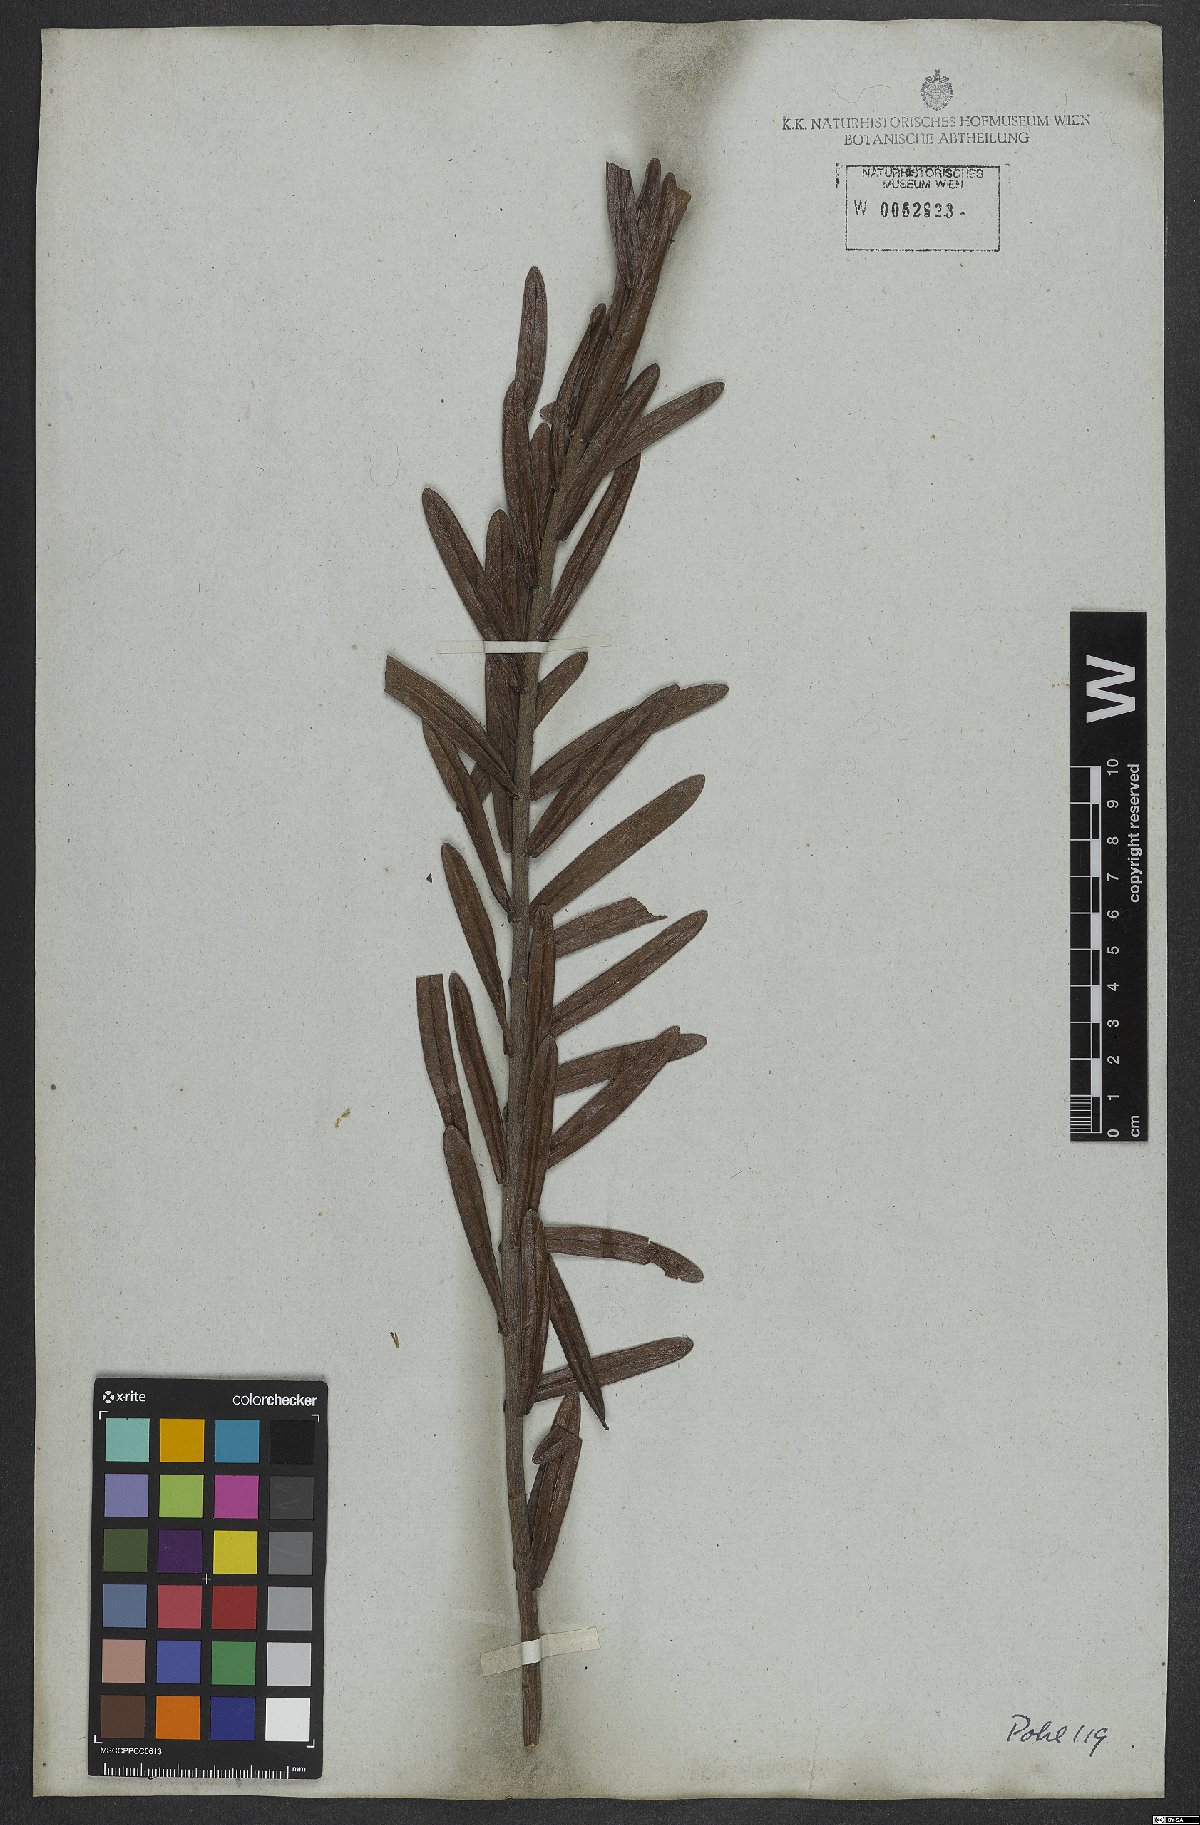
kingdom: Plantae
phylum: Tracheophyta
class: Magnoliopsida
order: Asterales
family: Asteraceae
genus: Campovassouria
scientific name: Campovassouria cruciata
